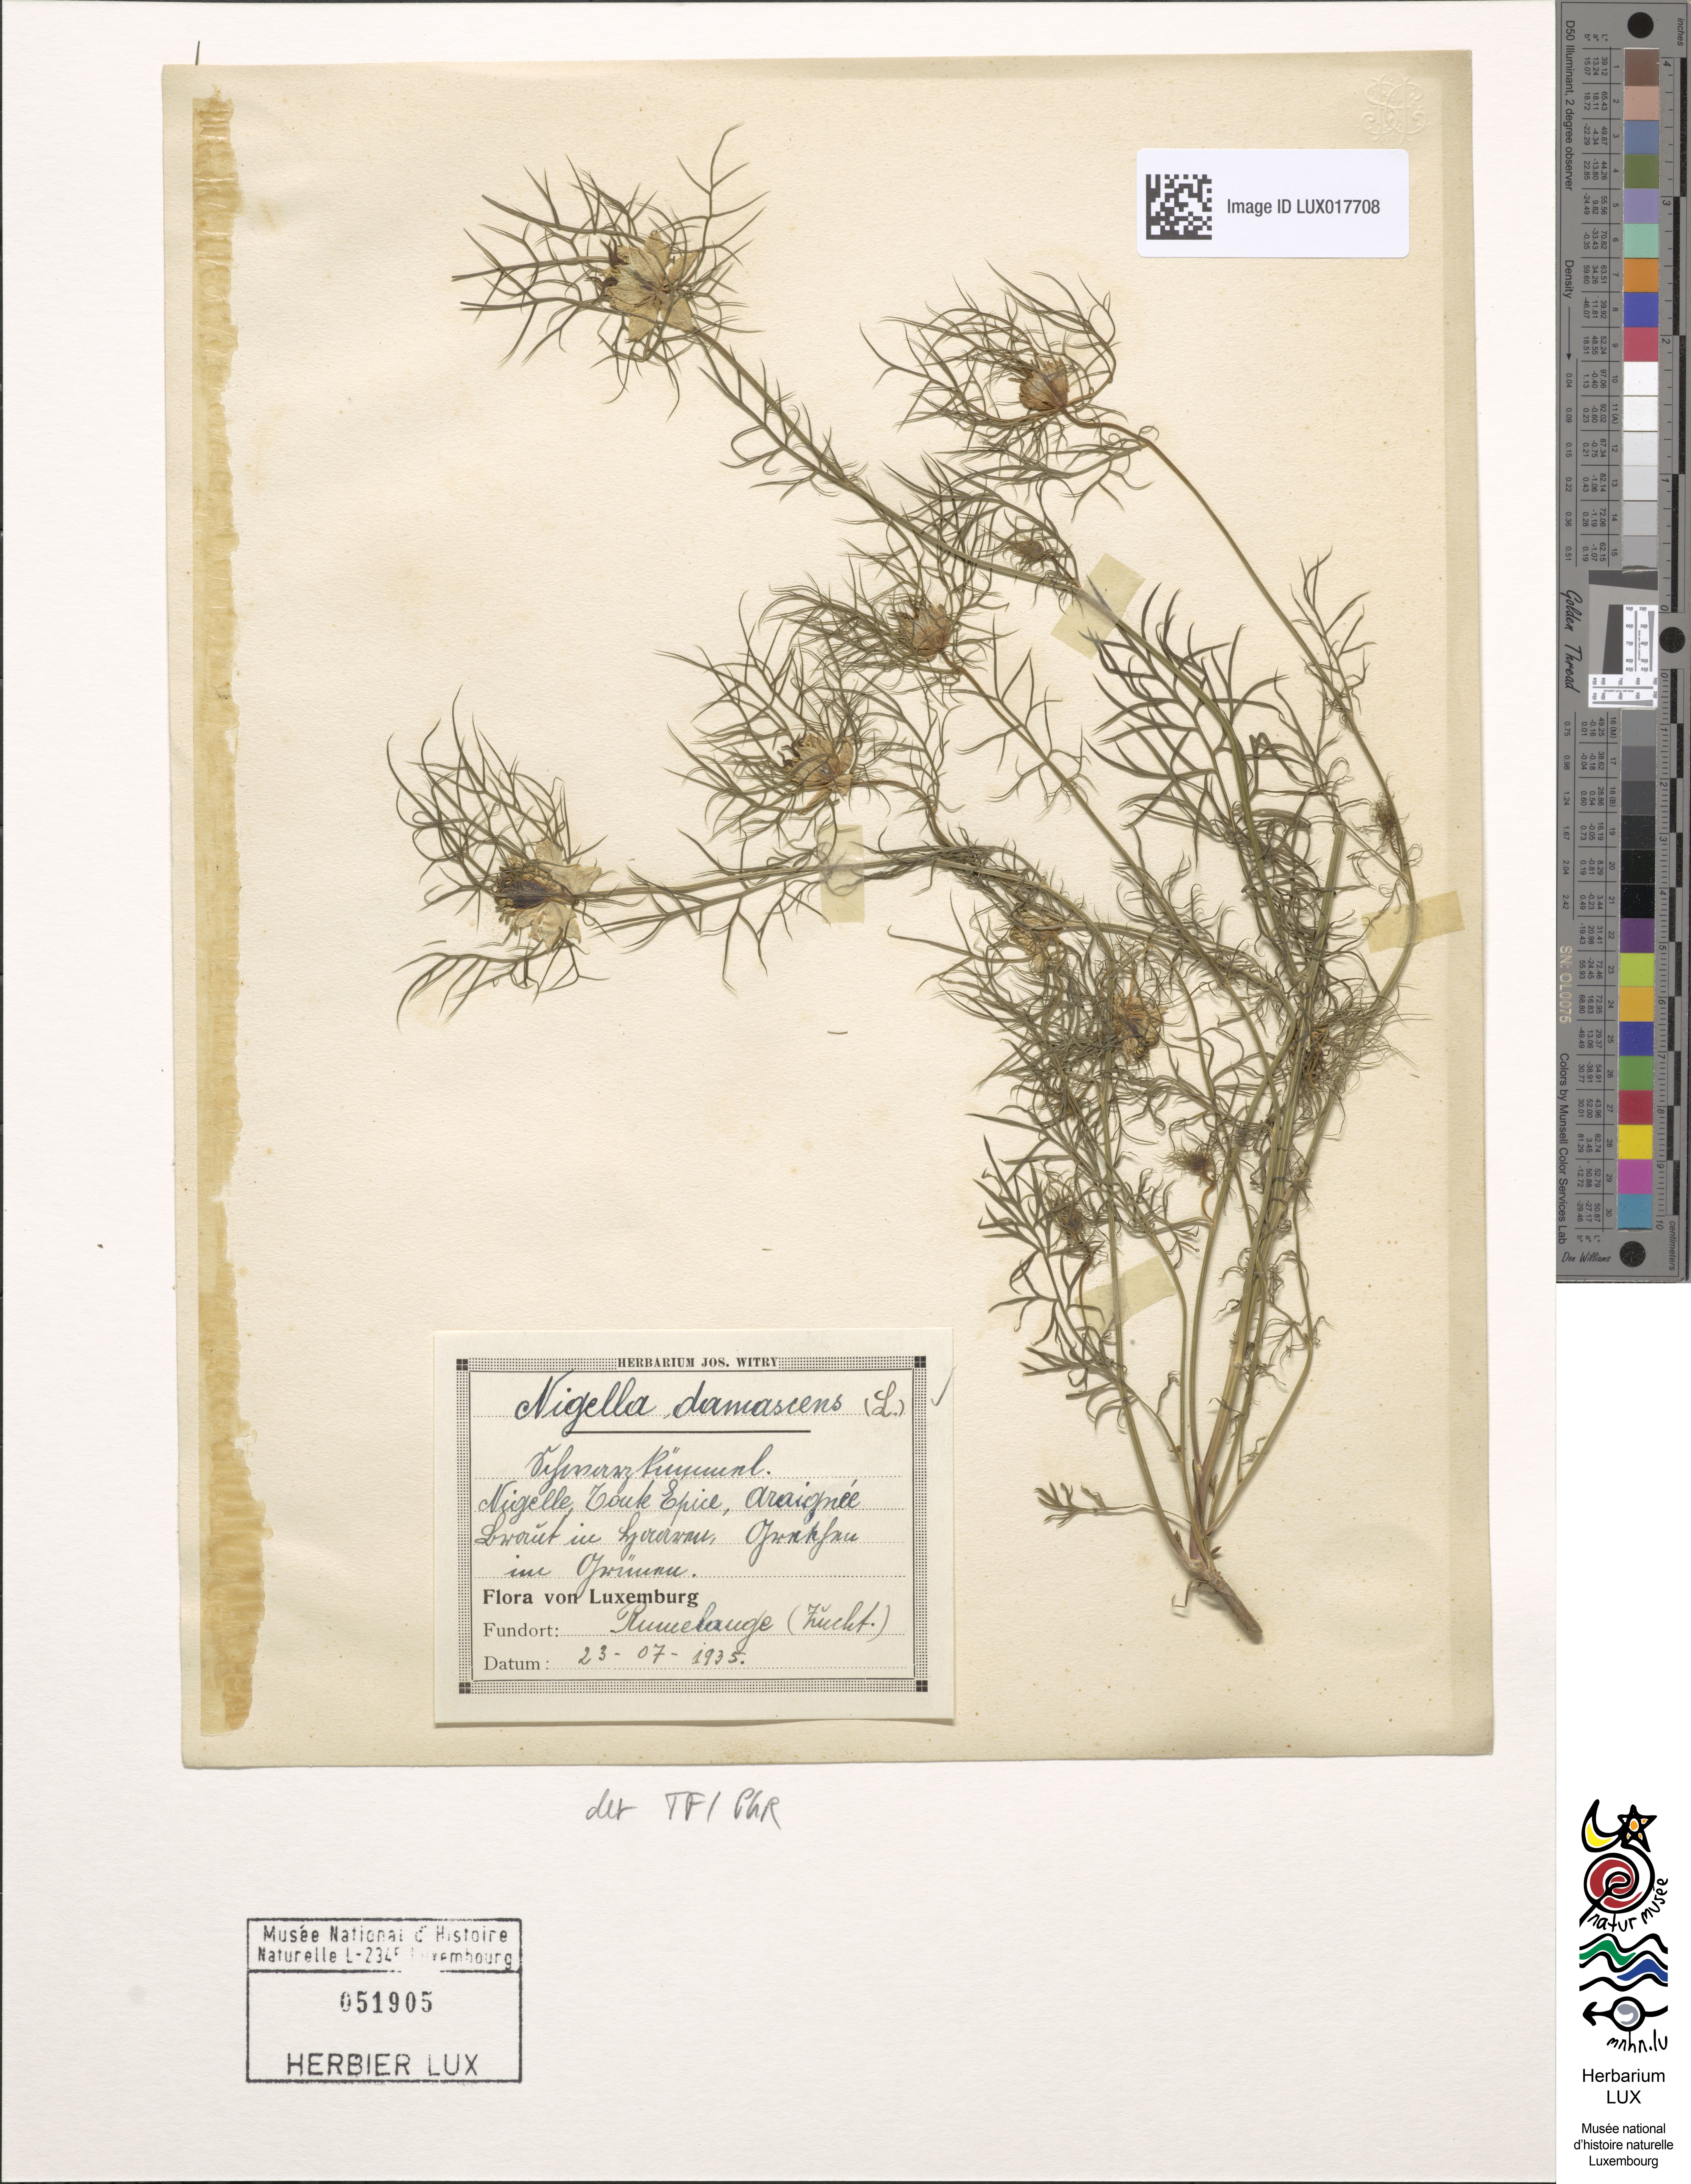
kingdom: Plantae
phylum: Tracheophyta
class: Magnoliopsida
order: Ranunculales
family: Ranunculaceae
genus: Nigella
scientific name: Nigella damascena
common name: Love-in-a-mist
